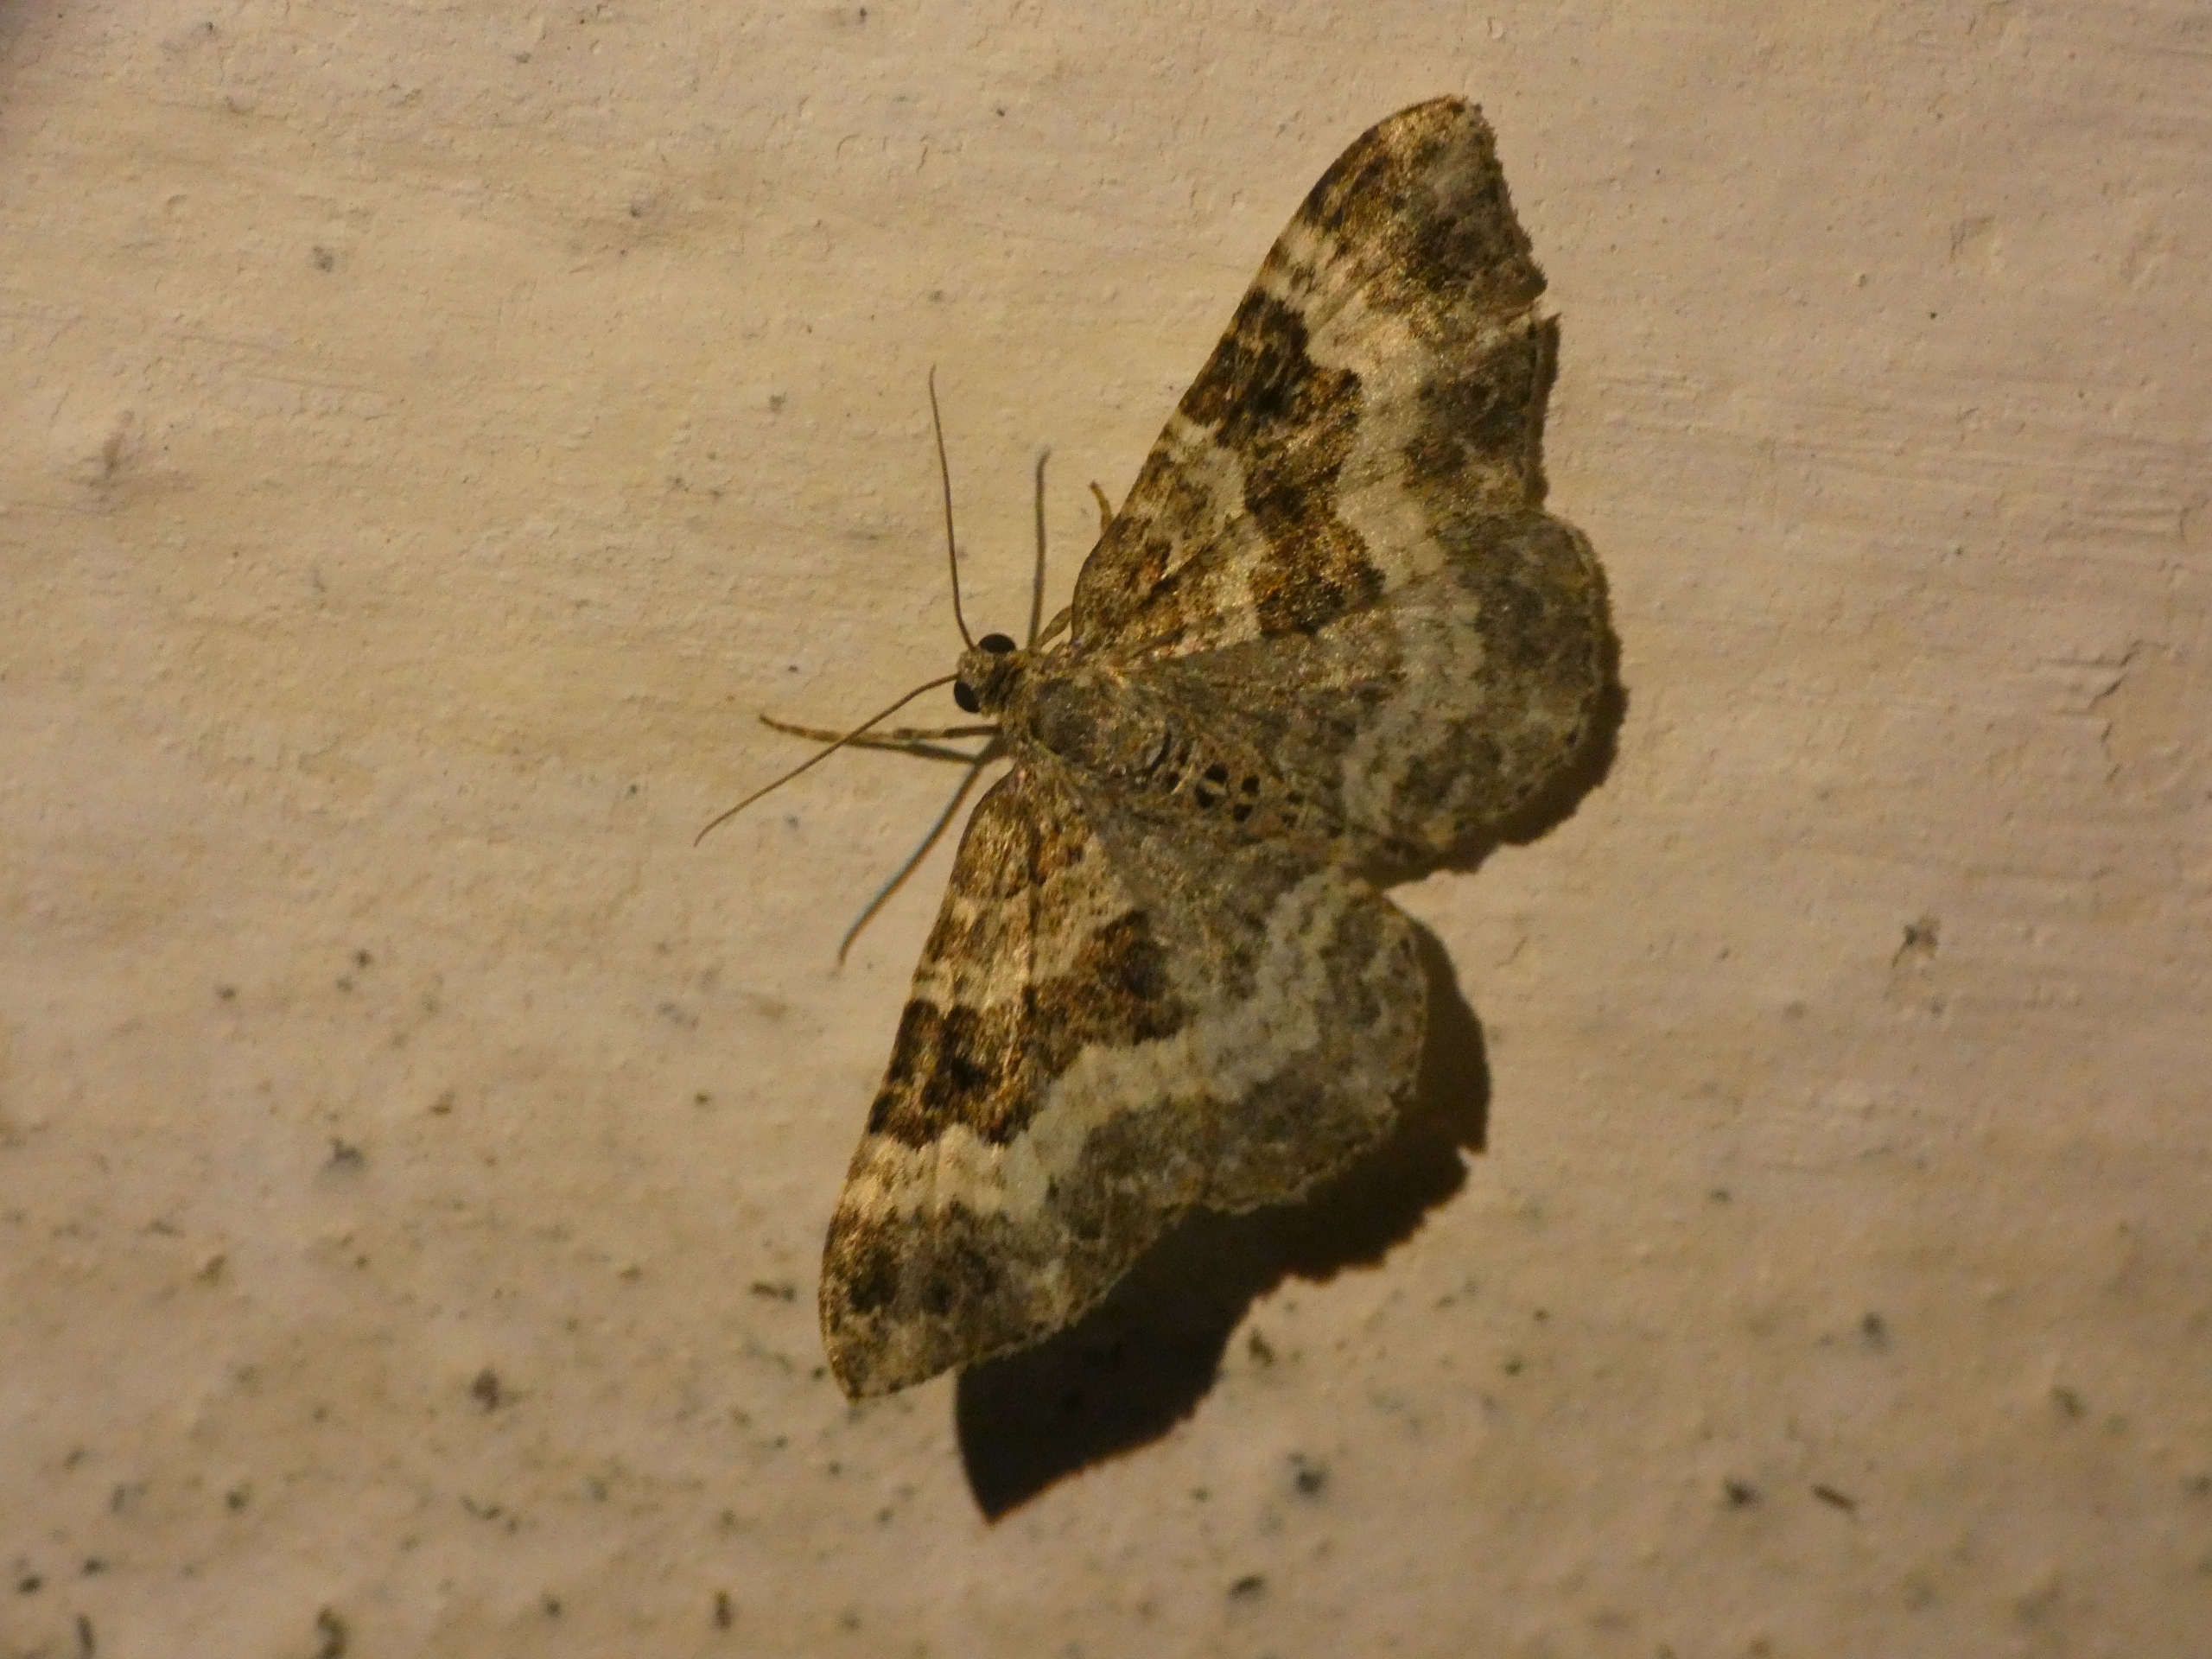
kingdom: Animalia
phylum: Arthropoda
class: Insecta
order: Lepidoptera
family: Geometridae
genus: Epirrhoe
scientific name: Epirrhoe alternata
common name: Almindelig bladmåler
